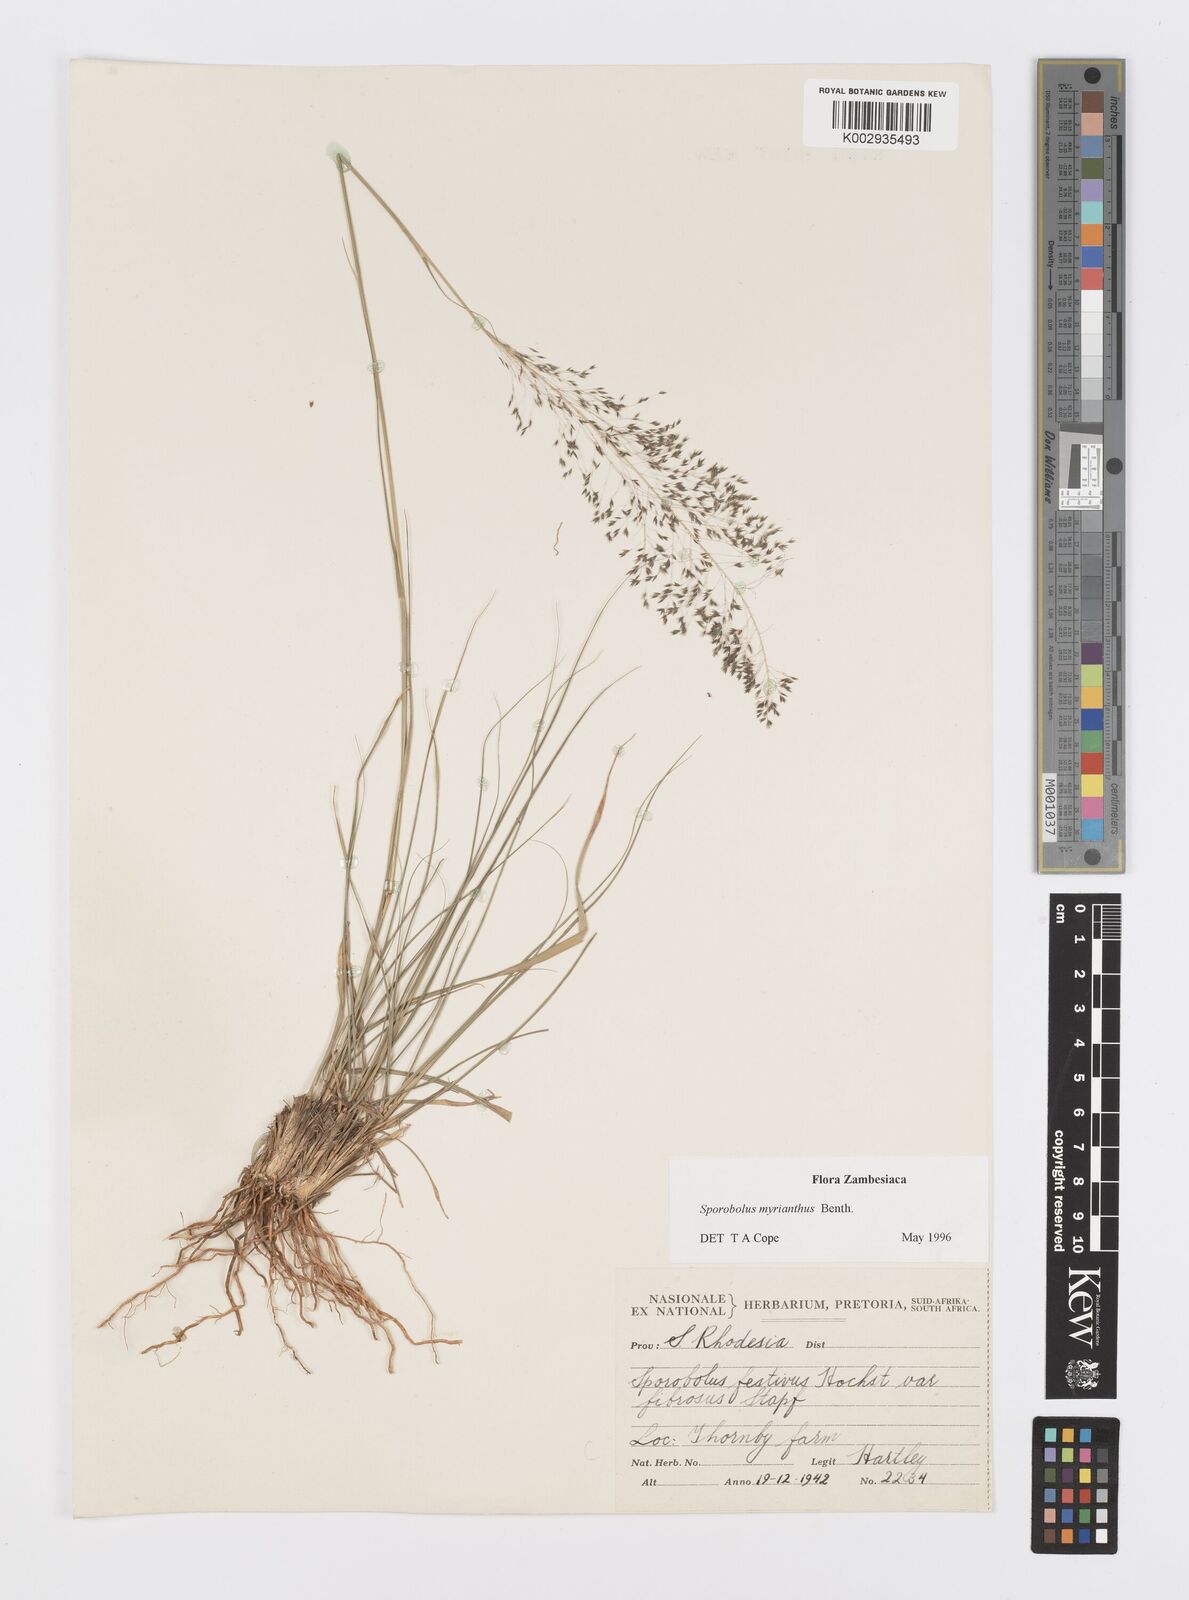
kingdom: Plantae
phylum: Tracheophyta
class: Liliopsida
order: Poales
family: Poaceae
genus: Sporobolus
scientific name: Sporobolus myrianthus
